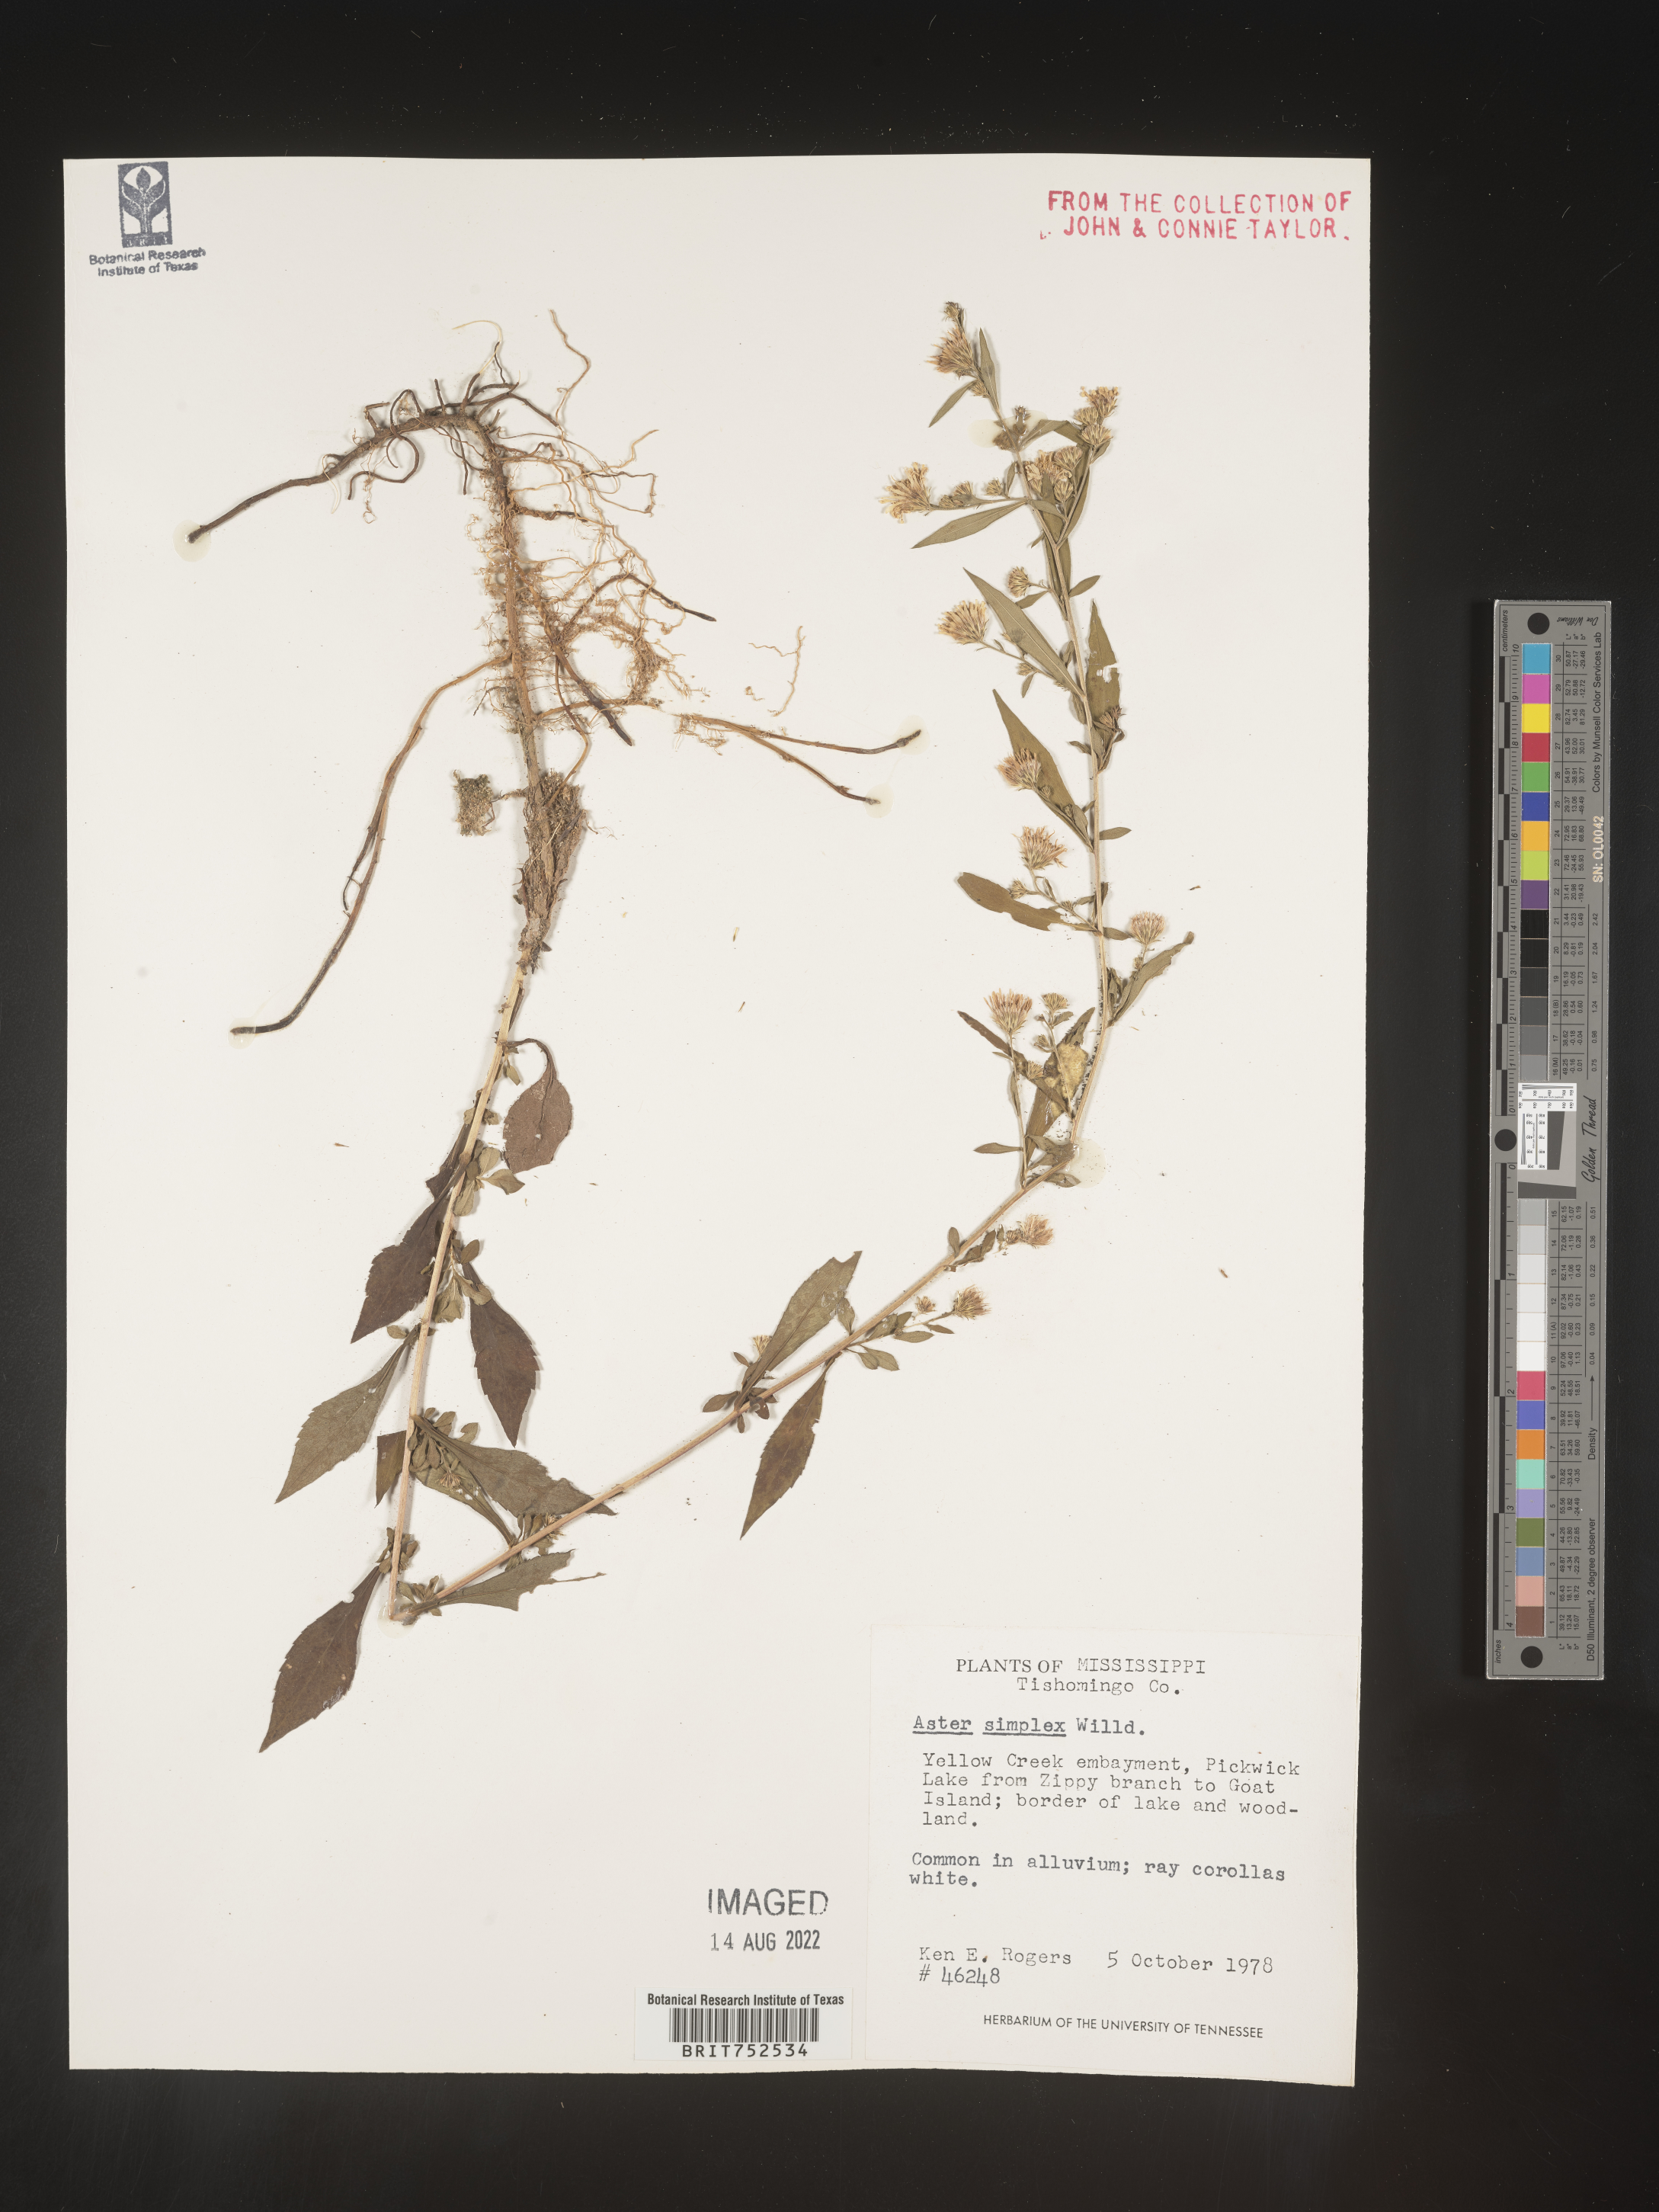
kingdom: Plantae
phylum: Tracheophyta
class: Magnoliopsida
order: Asterales
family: Asteraceae
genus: Symphyotrichum
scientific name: Symphyotrichum lanceolatum
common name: Panicled aster
